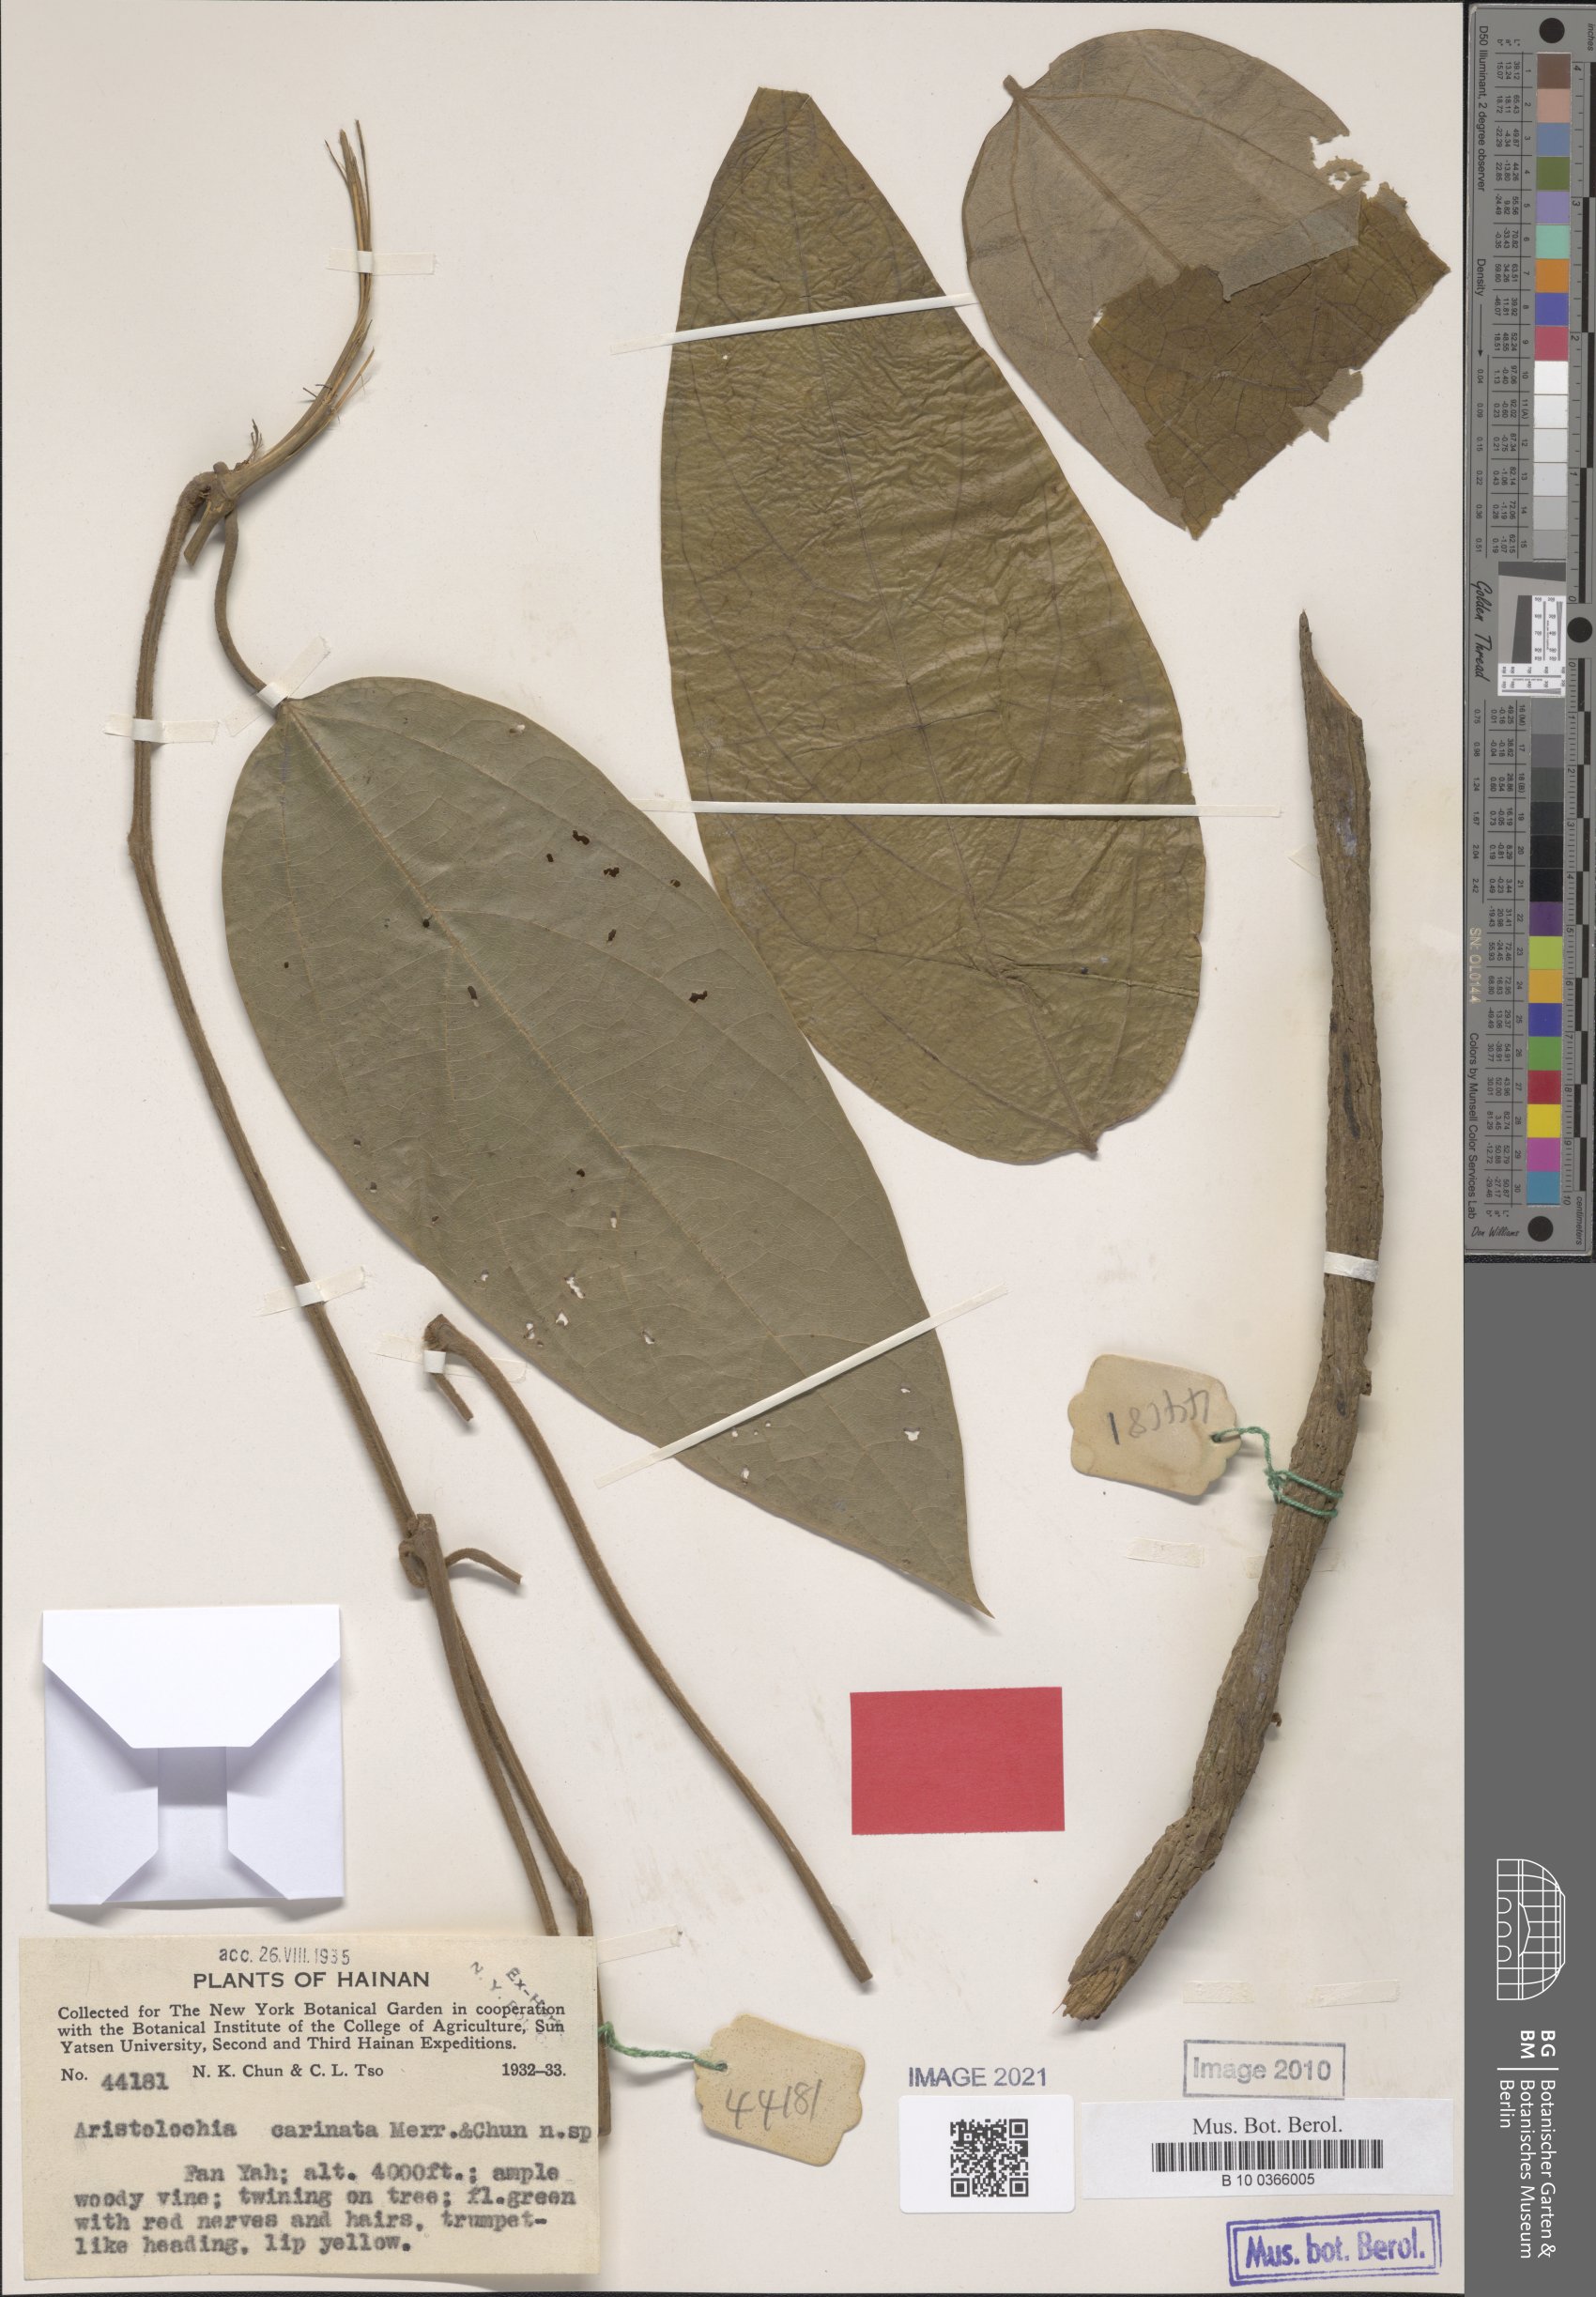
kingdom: Plantae
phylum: Tracheophyta
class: Magnoliopsida
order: Piperales
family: Aristolochiaceae
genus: Isotrema
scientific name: Isotrema hainanense
